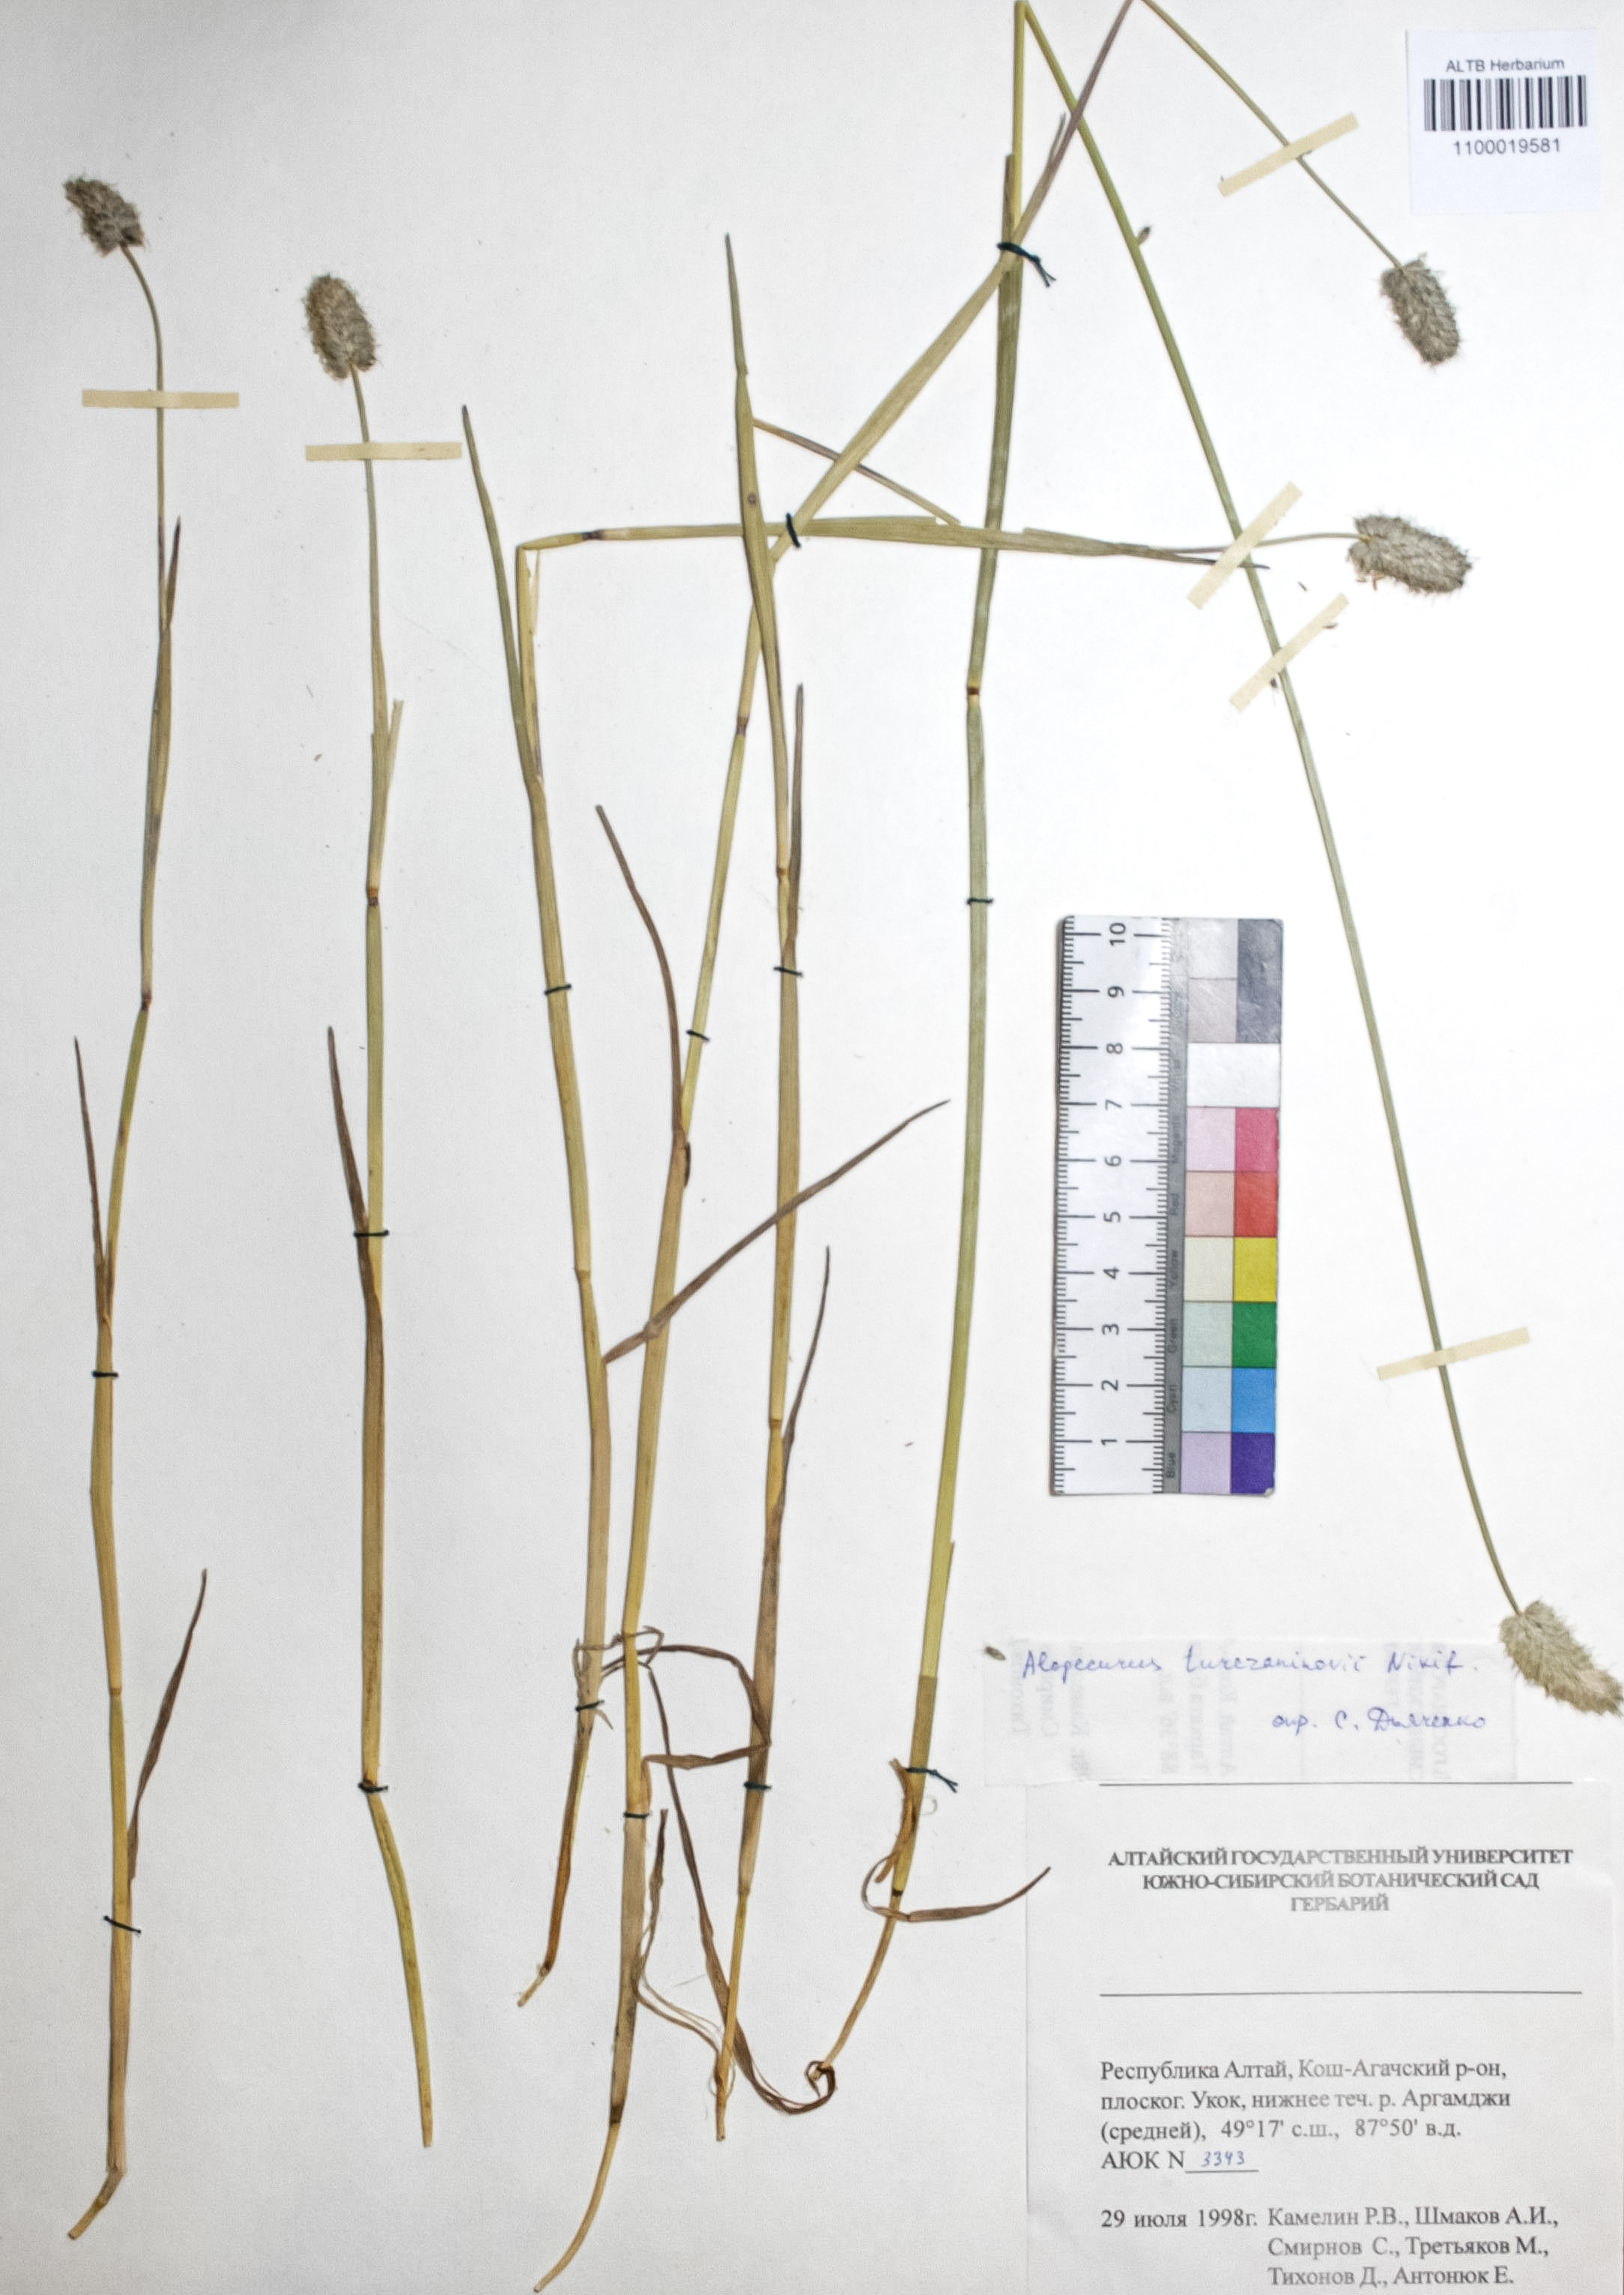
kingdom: Plantae
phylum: Tracheophyta
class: Liliopsida
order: Poales
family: Poaceae
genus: Alopecurus
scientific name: Alopecurus turczaninovii
